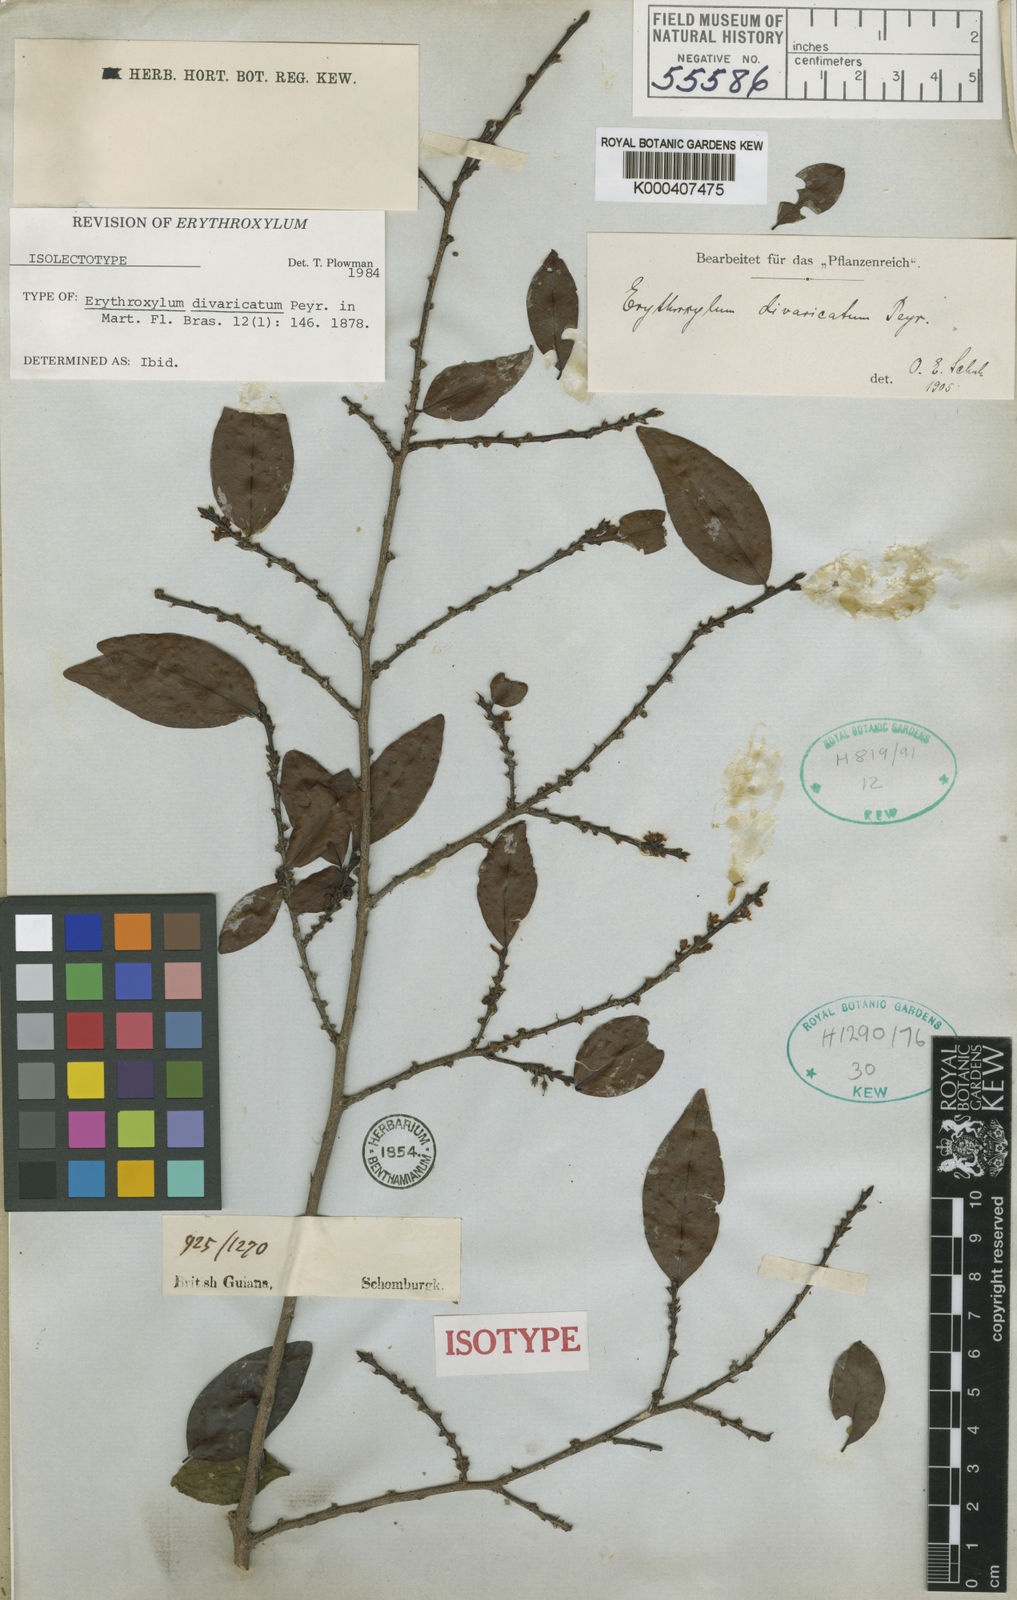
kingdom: Plantae
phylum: Tracheophyta
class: Magnoliopsida
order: Malpighiales
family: Erythroxylaceae
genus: Erythroxylum
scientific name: Erythroxylum divaricatum
